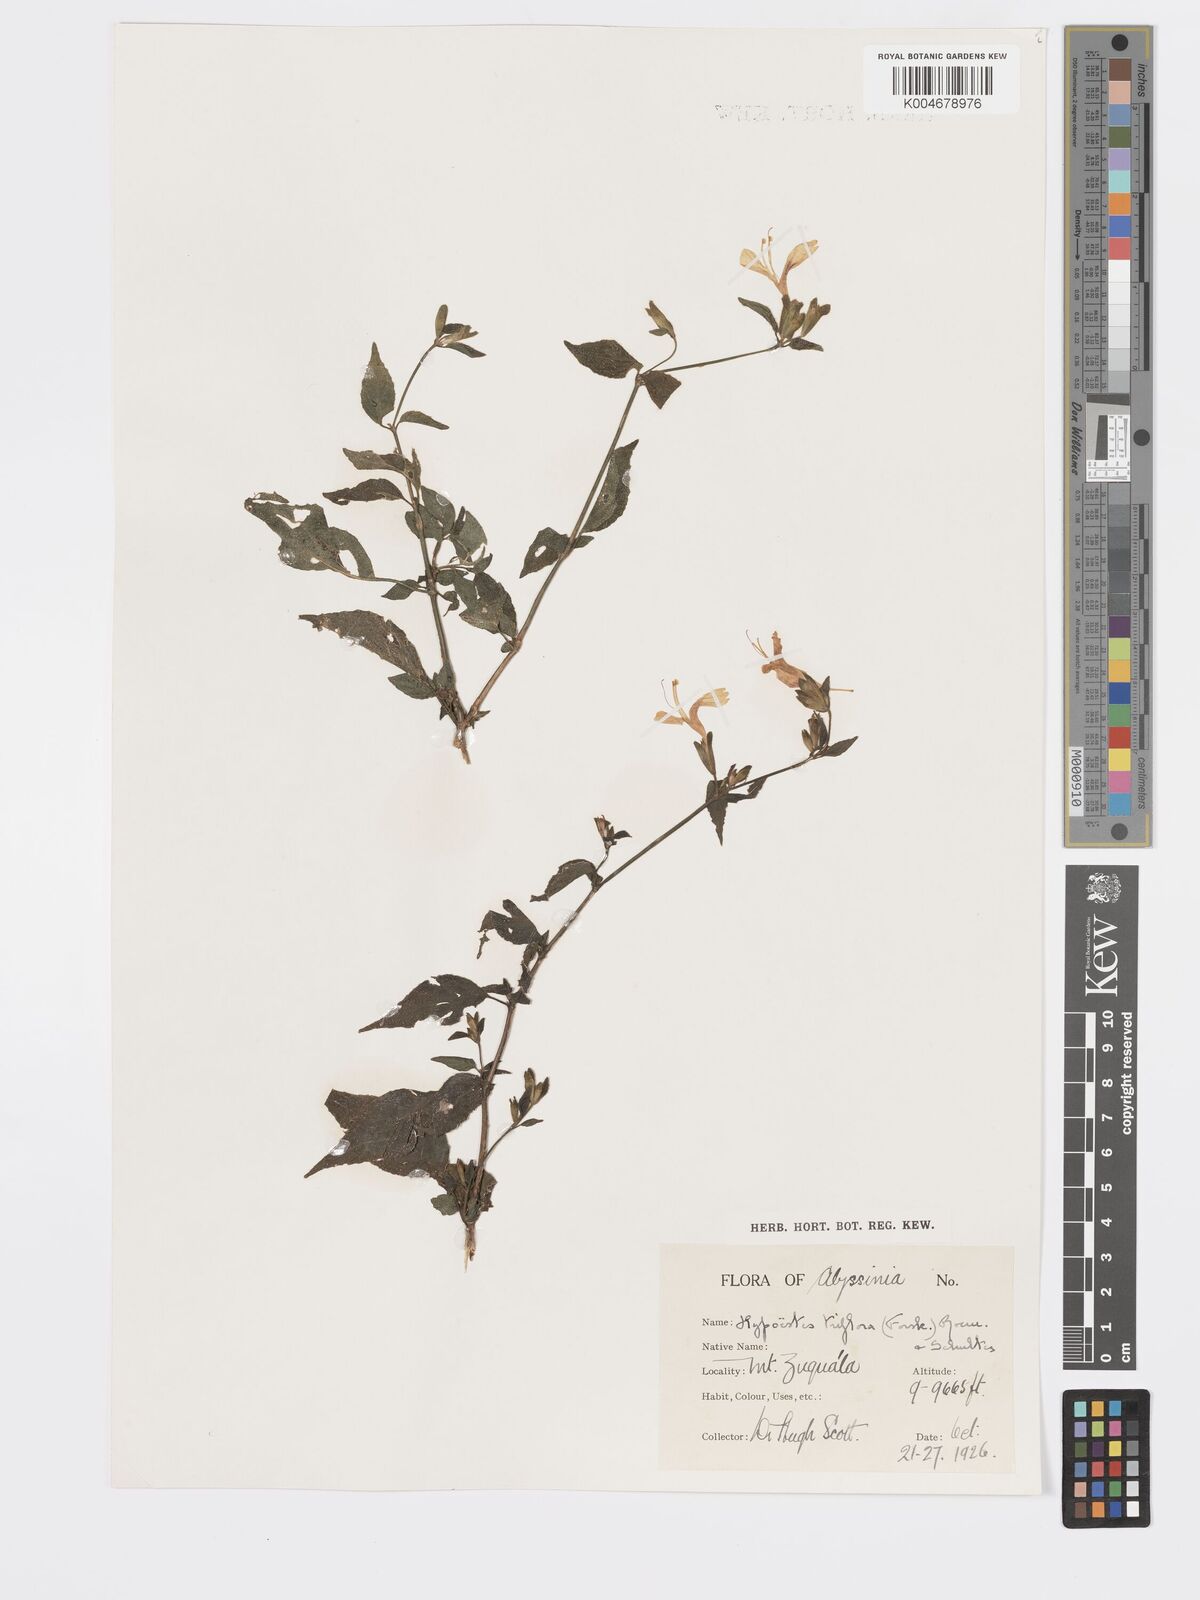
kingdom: Plantae
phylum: Tracheophyta
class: Magnoliopsida
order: Lamiales
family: Acanthaceae
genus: Hypoestes
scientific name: Hypoestes triflora
